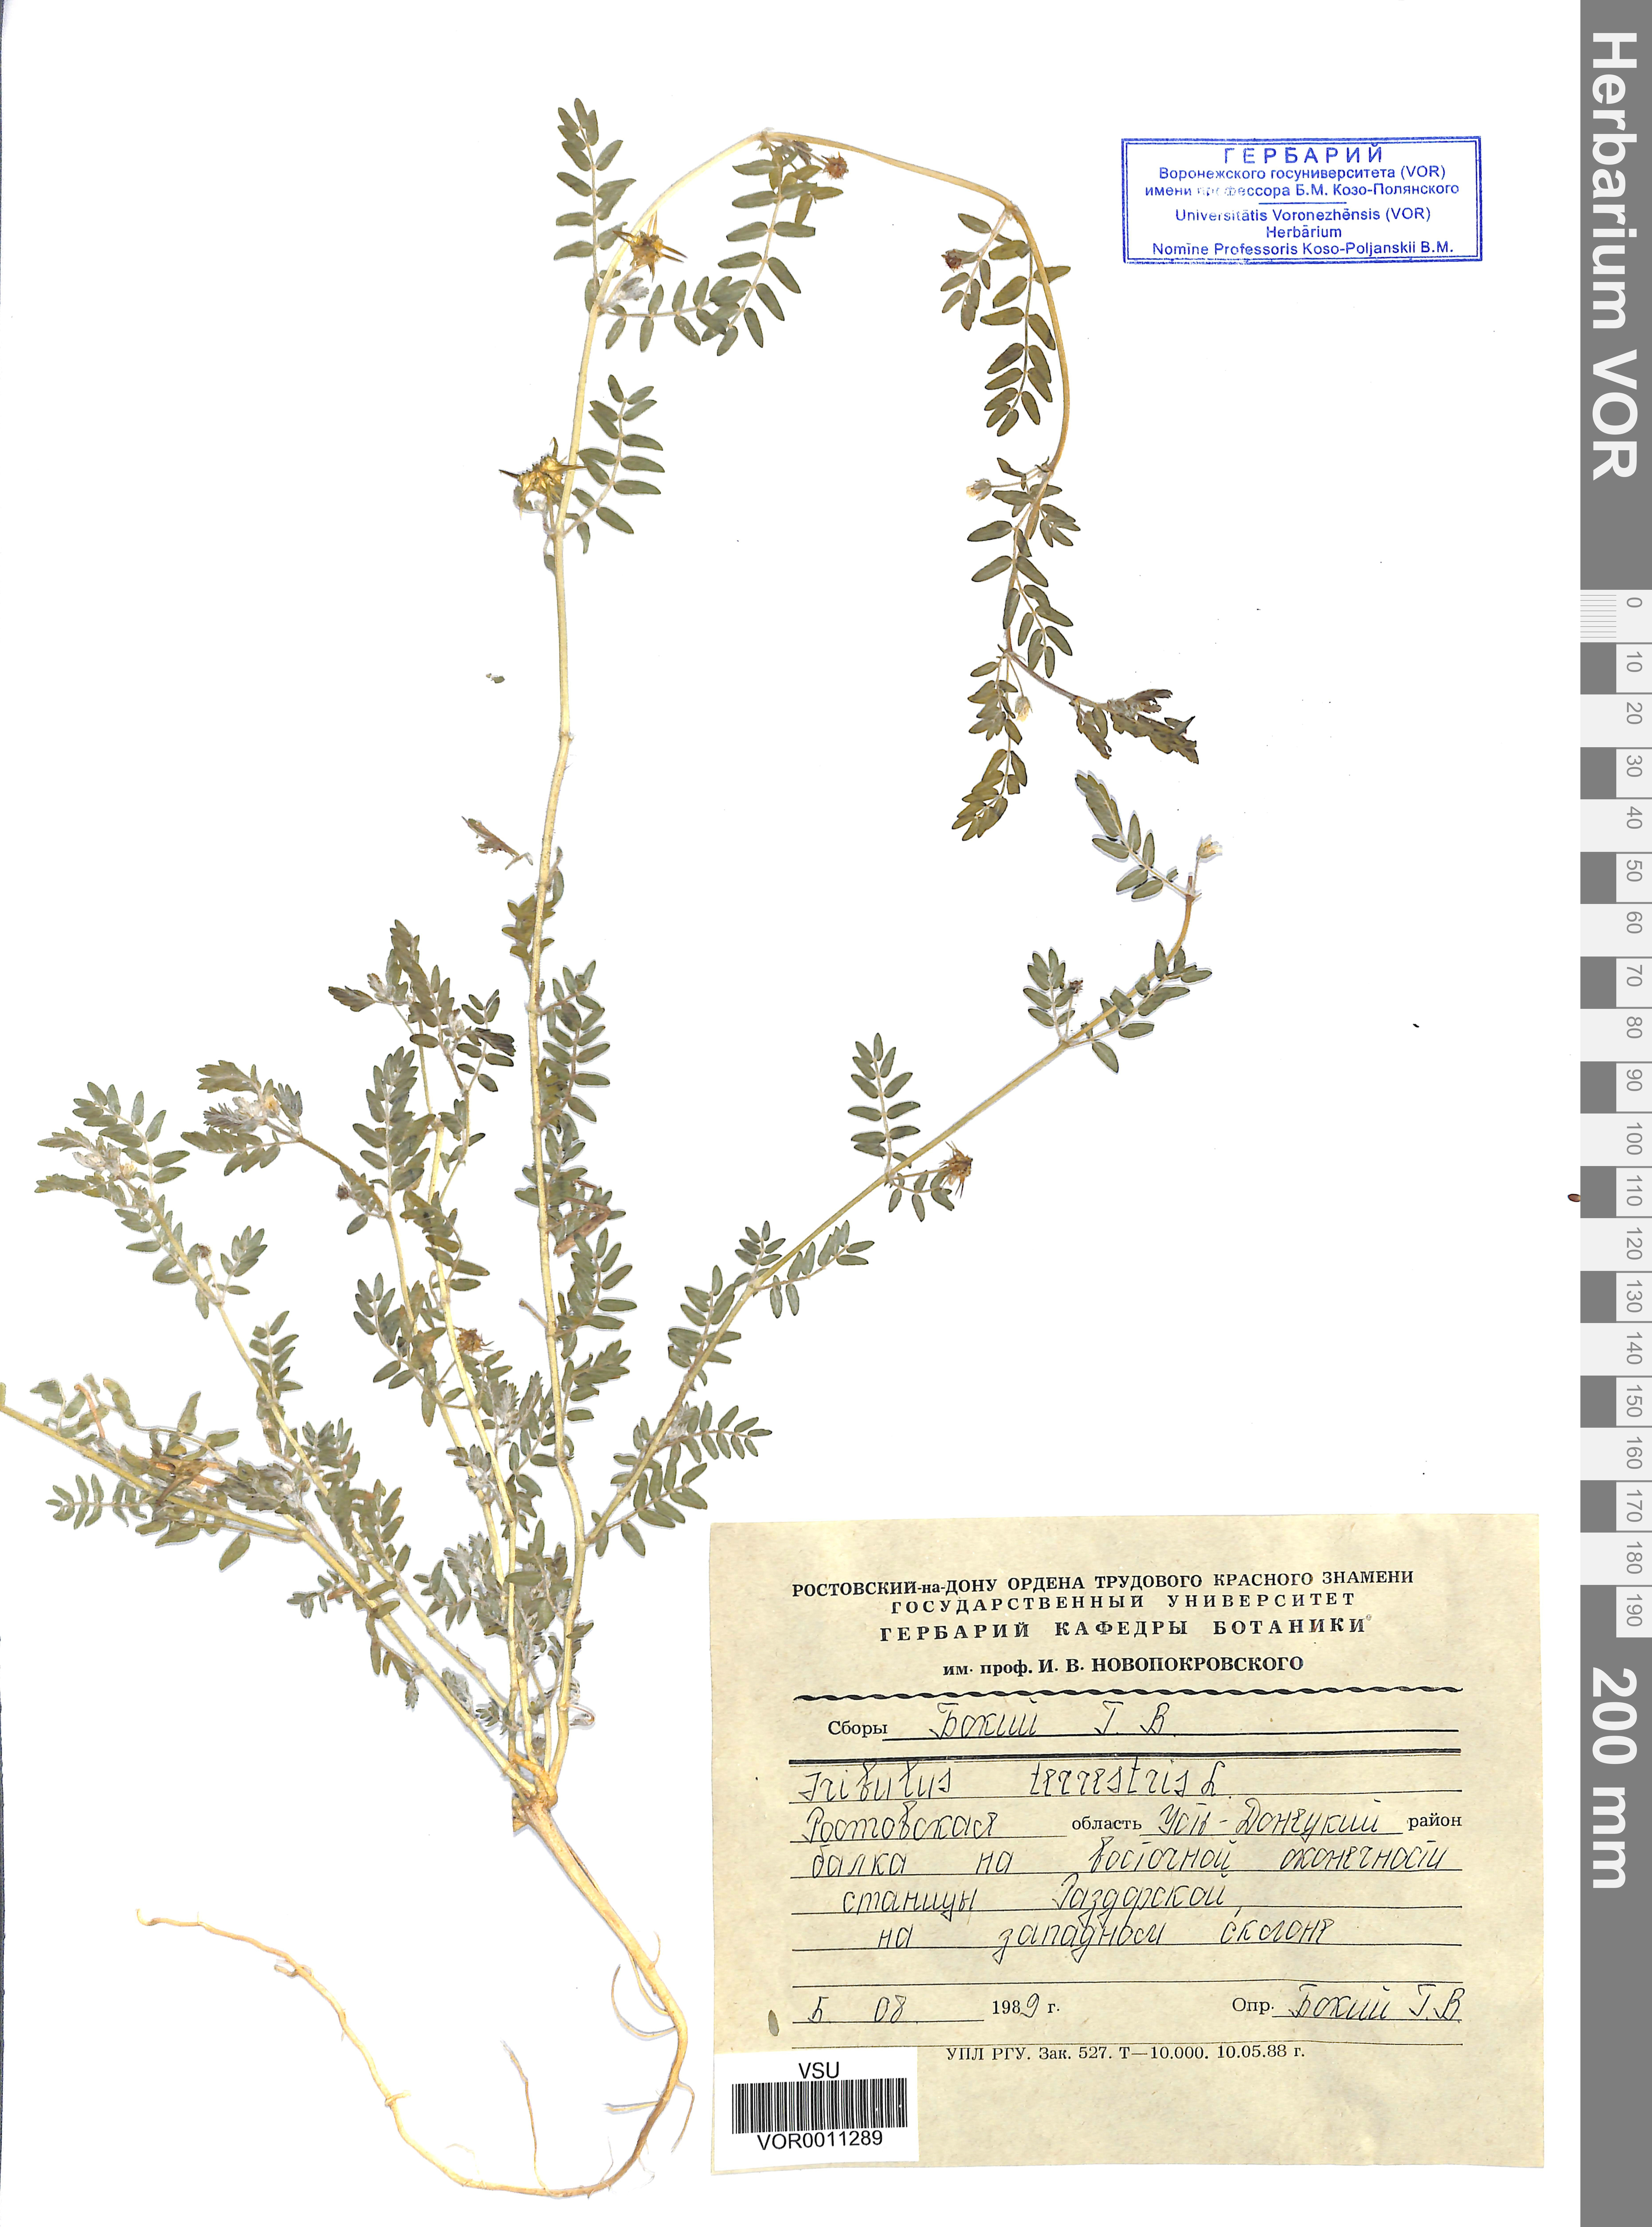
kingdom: Plantae
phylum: Tracheophyta
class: Magnoliopsida
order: Zygophyllales
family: Zygophyllaceae
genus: Tribulus
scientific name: Tribulus terrestris
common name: Puncturevine
